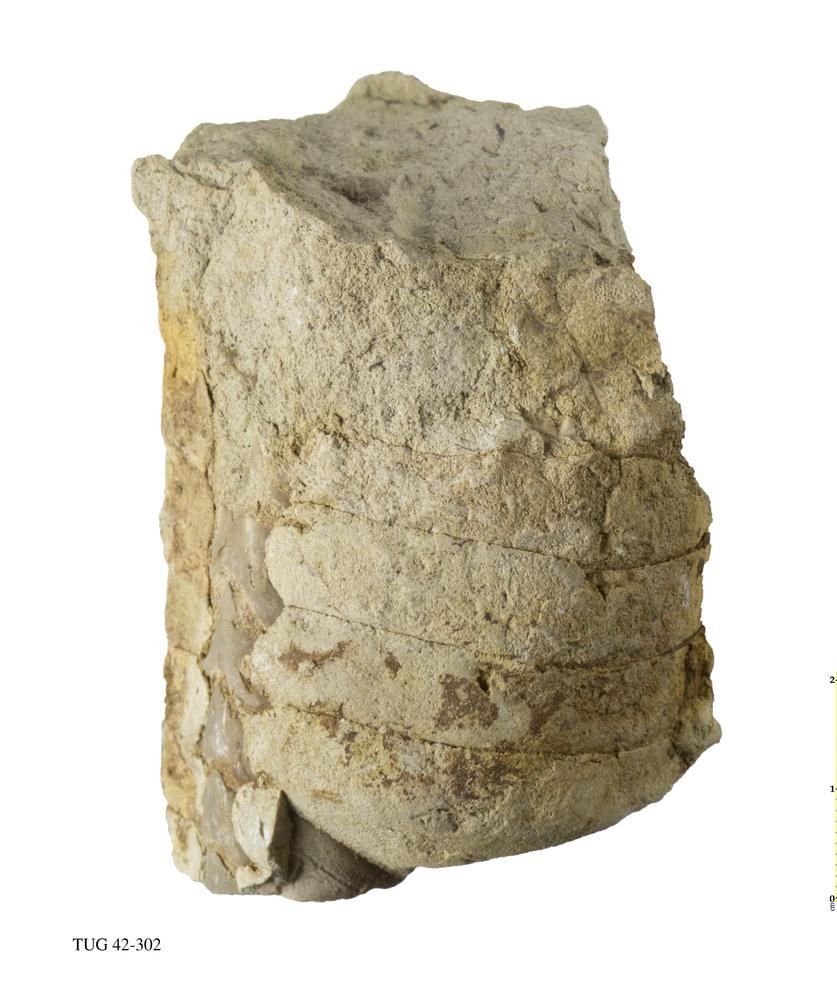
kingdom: Animalia
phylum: Mollusca
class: Cephalopoda
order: Orthocerida
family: Orthoceratidae
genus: Orthoceras
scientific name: Orthoceras
